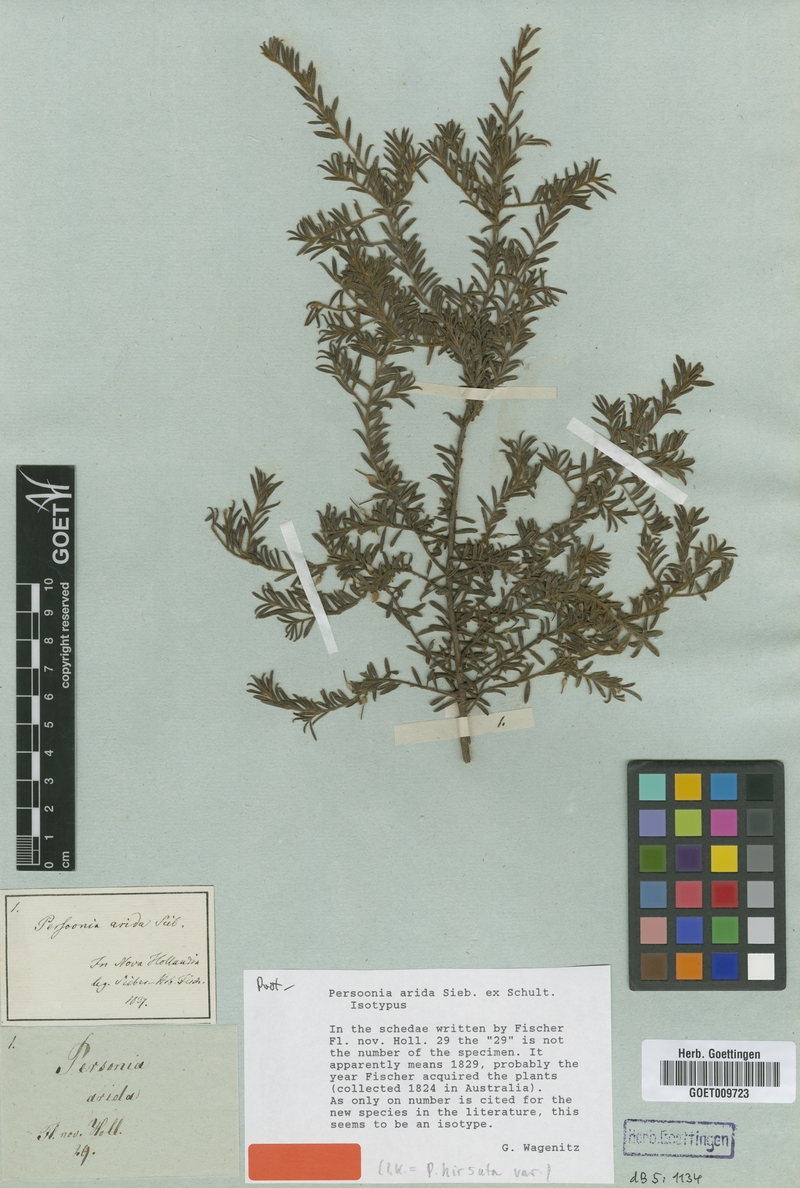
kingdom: Plantae
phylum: Tracheophyta
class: Magnoliopsida
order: Proteales
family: Proteaceae
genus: Persoonia
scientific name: Persoonia hirsuta
